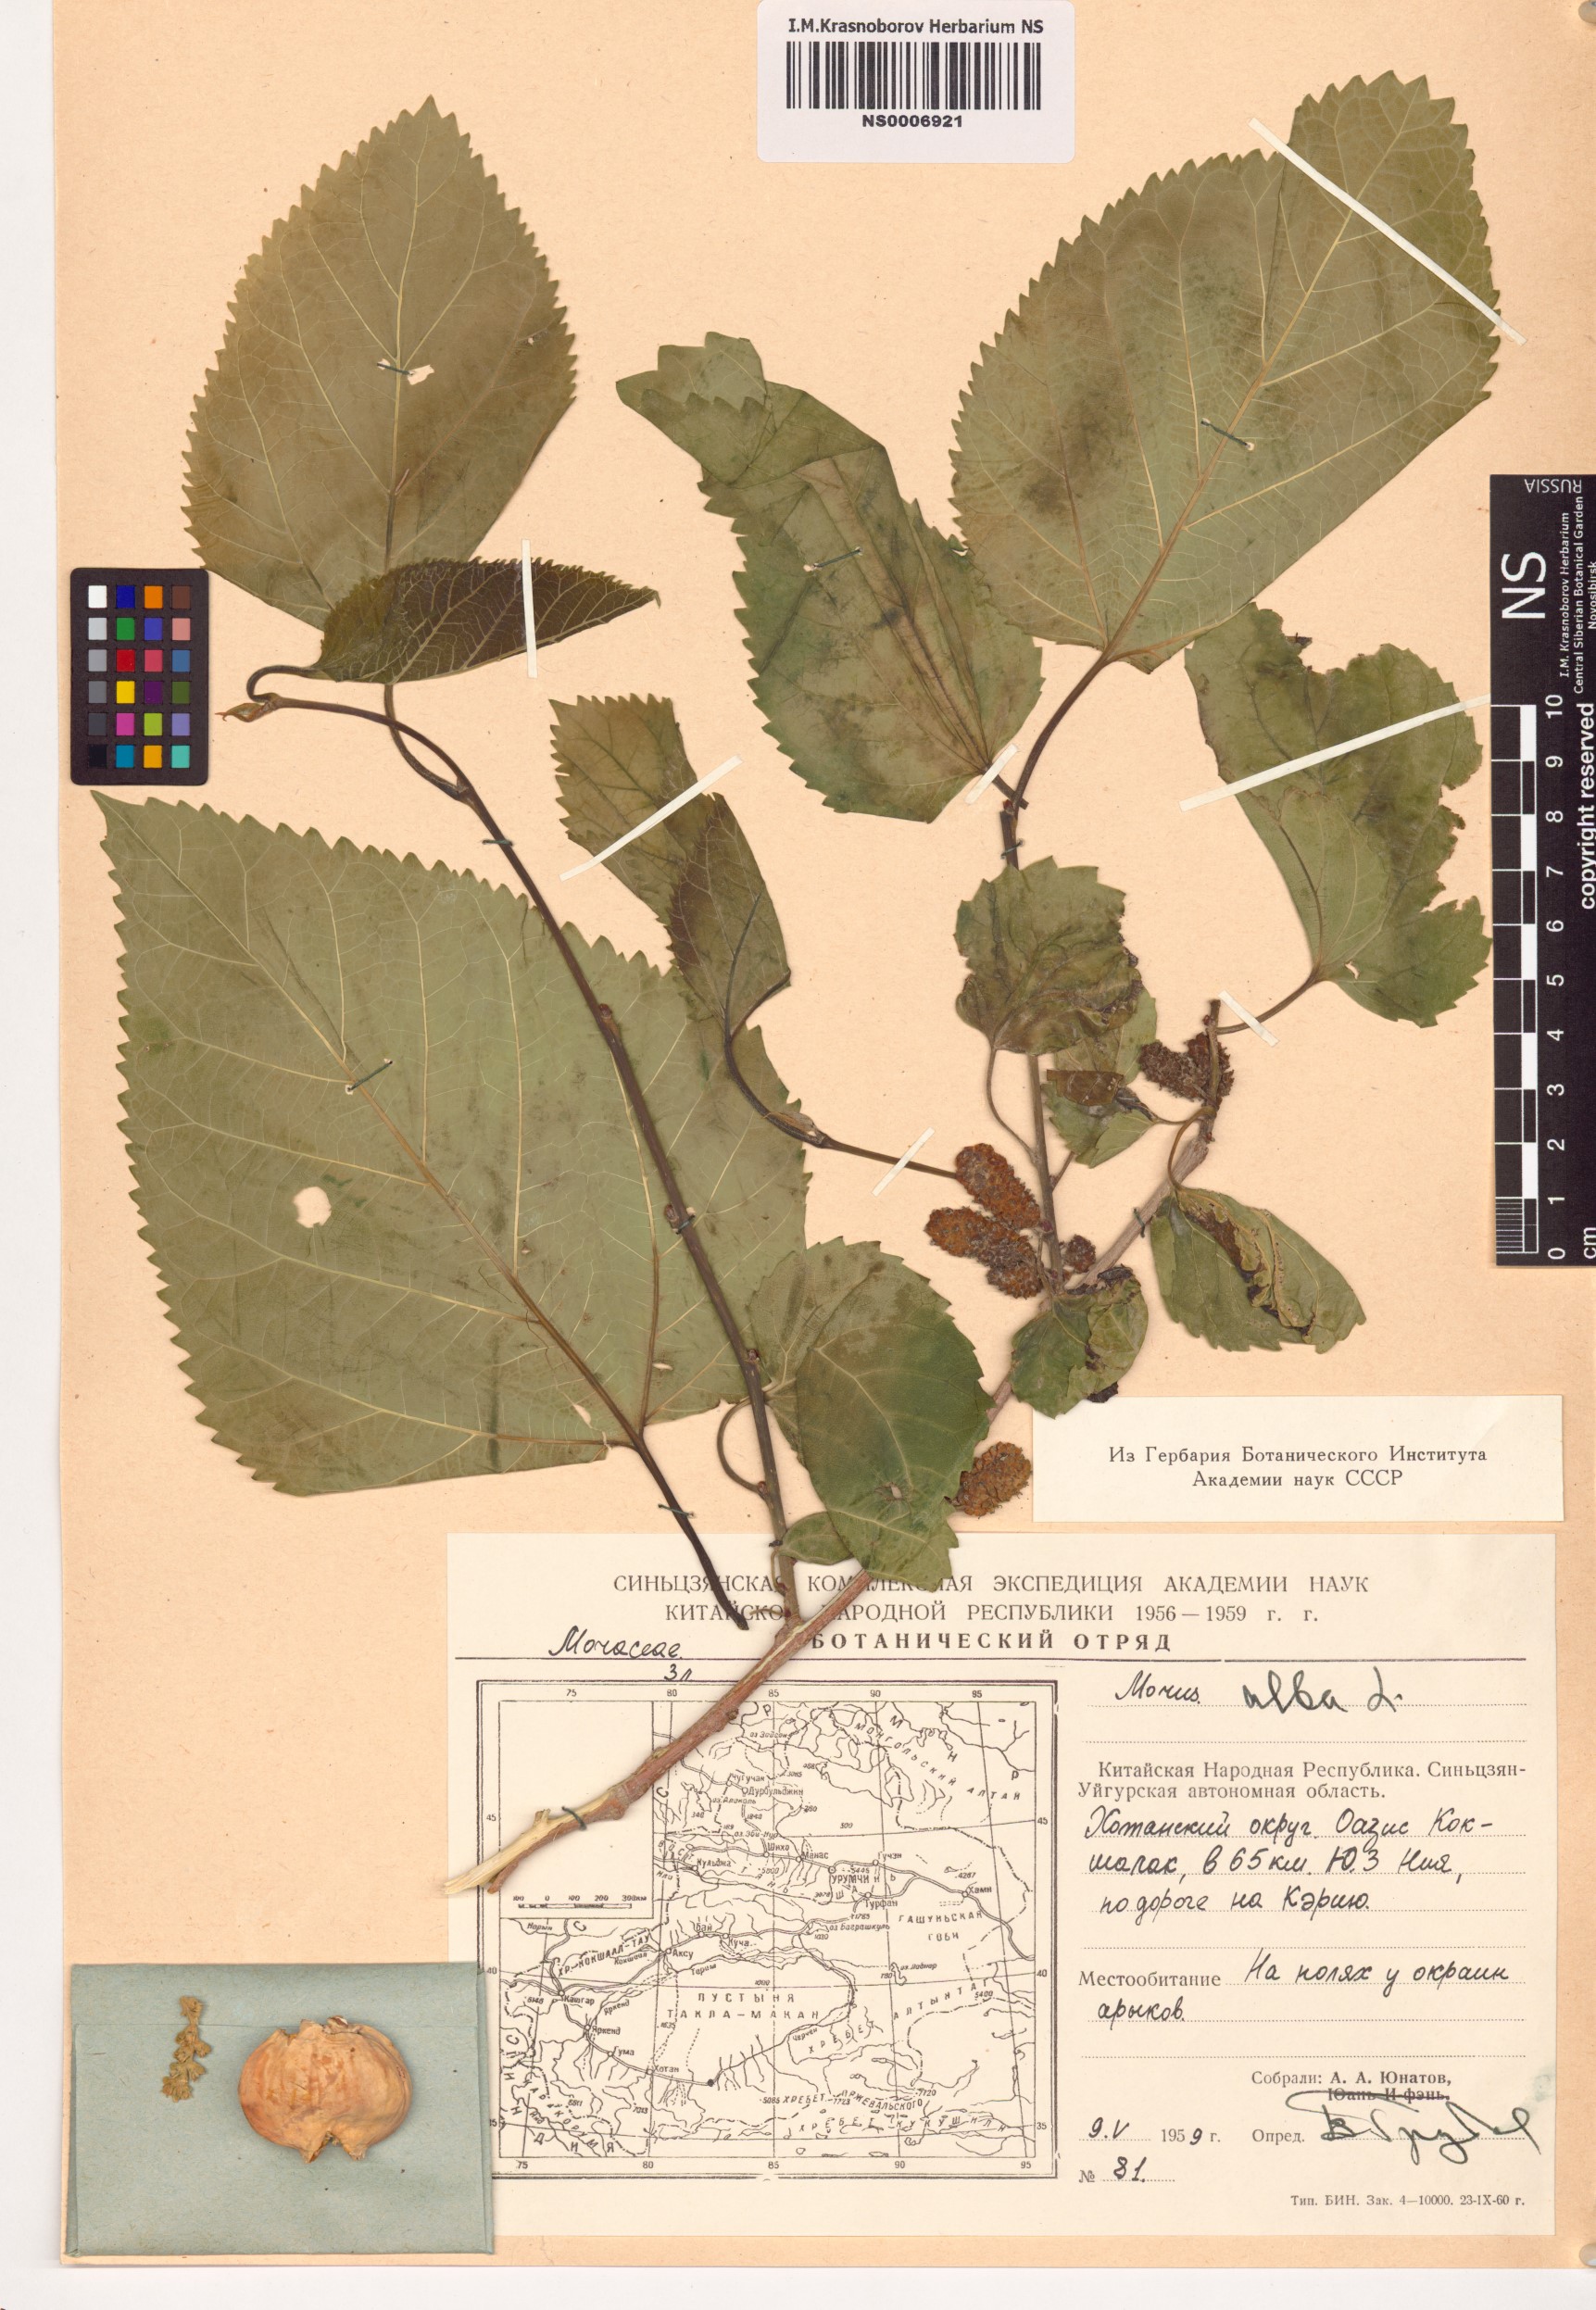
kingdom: Plantae
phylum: Tracheophyta
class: Magnoliopsida
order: Rosales
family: Moraceae
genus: Morus
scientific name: Morus alba
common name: White mulberry
